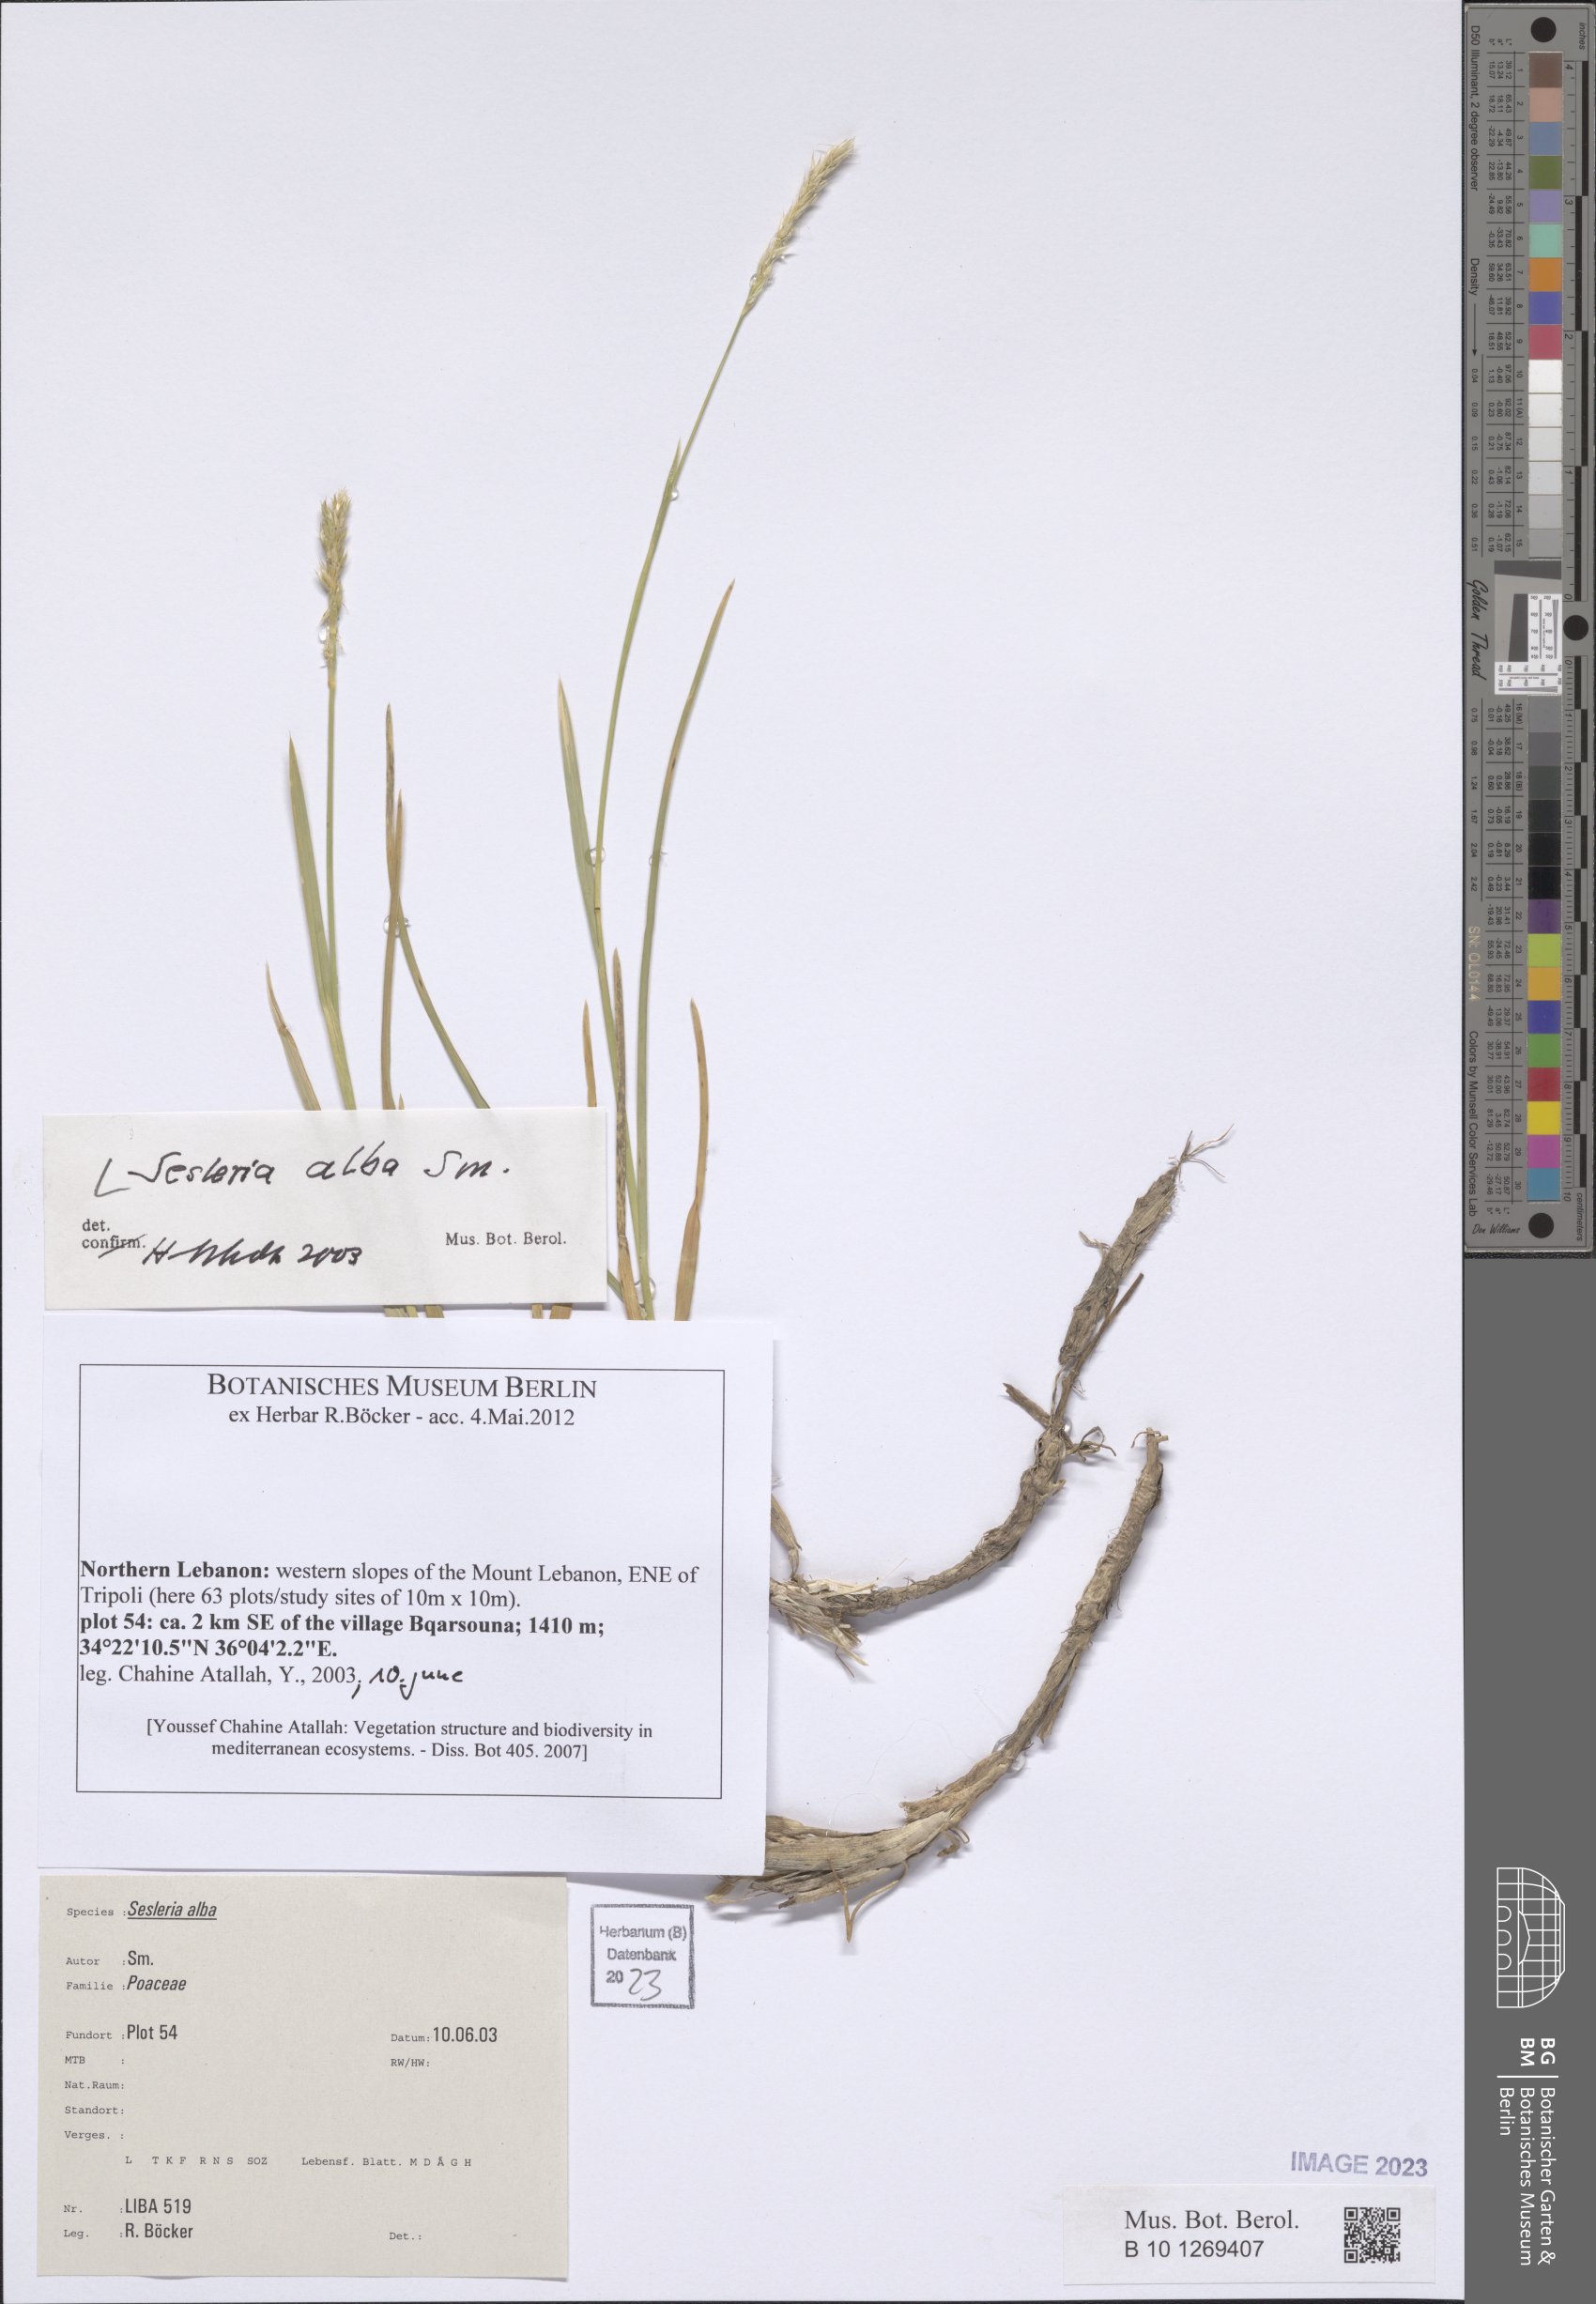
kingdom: Plantae
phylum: Tracheophyta
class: Liliopsida
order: Poales
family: Poaceae
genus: Sesleria
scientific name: Sesleria alba
